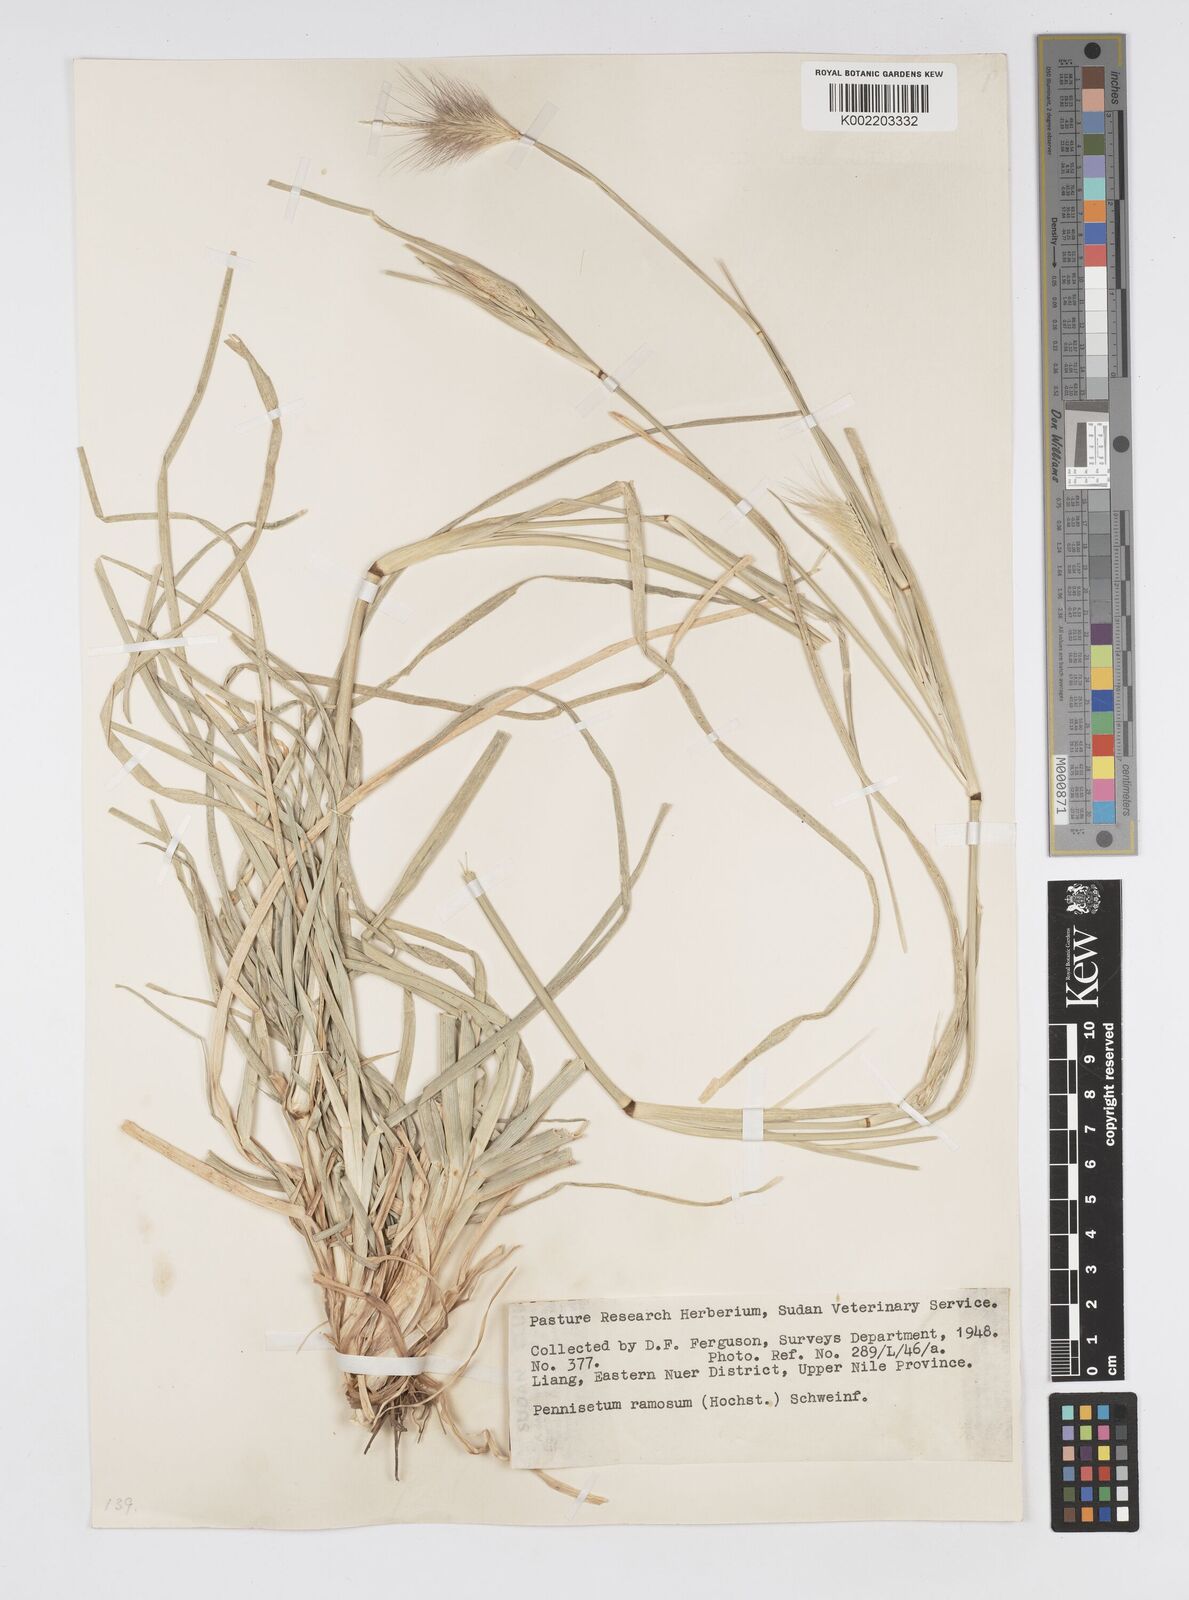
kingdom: Plantae
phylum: Tracheophyta
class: Liliopsida
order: Poales
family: Poaceae
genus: Cenchrus
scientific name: Cenchrus ramosus
